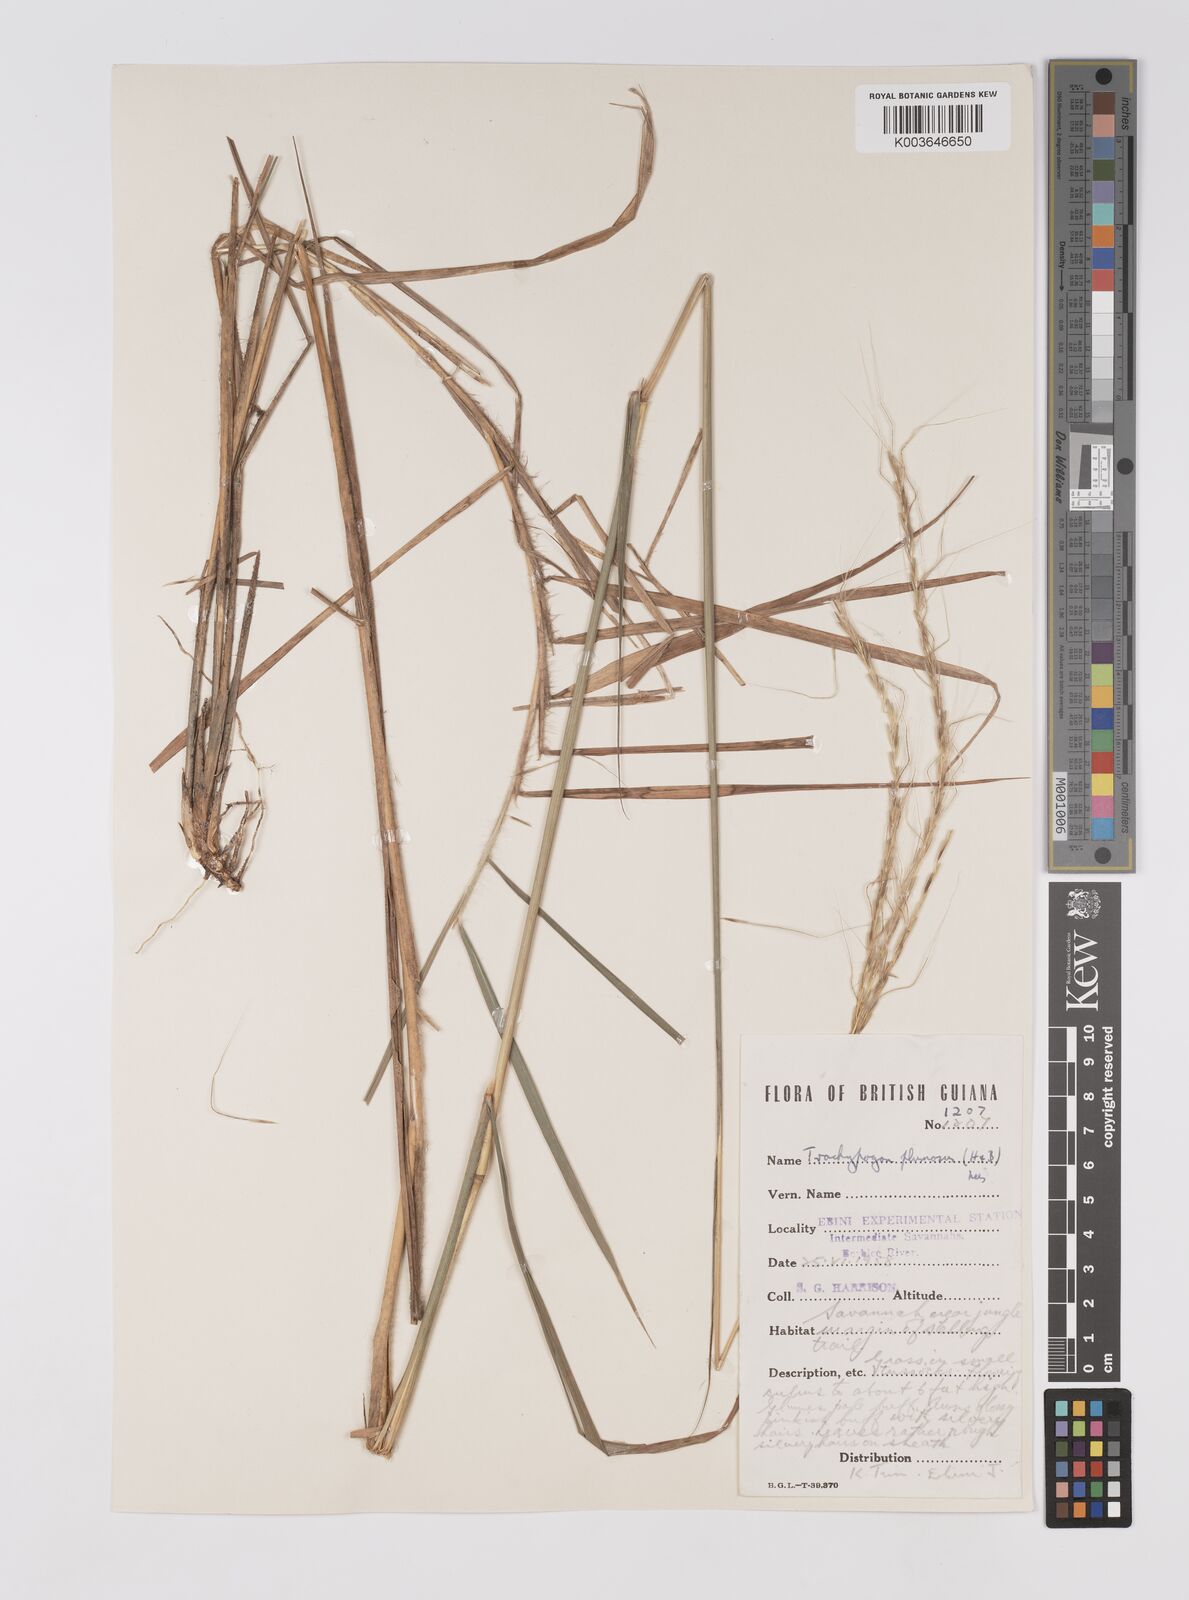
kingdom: Plantae
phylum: Tracheophyta
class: Liliopsida
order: Poales
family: Poaceae
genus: Trachypogon
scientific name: Trachypogon spicatus
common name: Crinkle-awn
